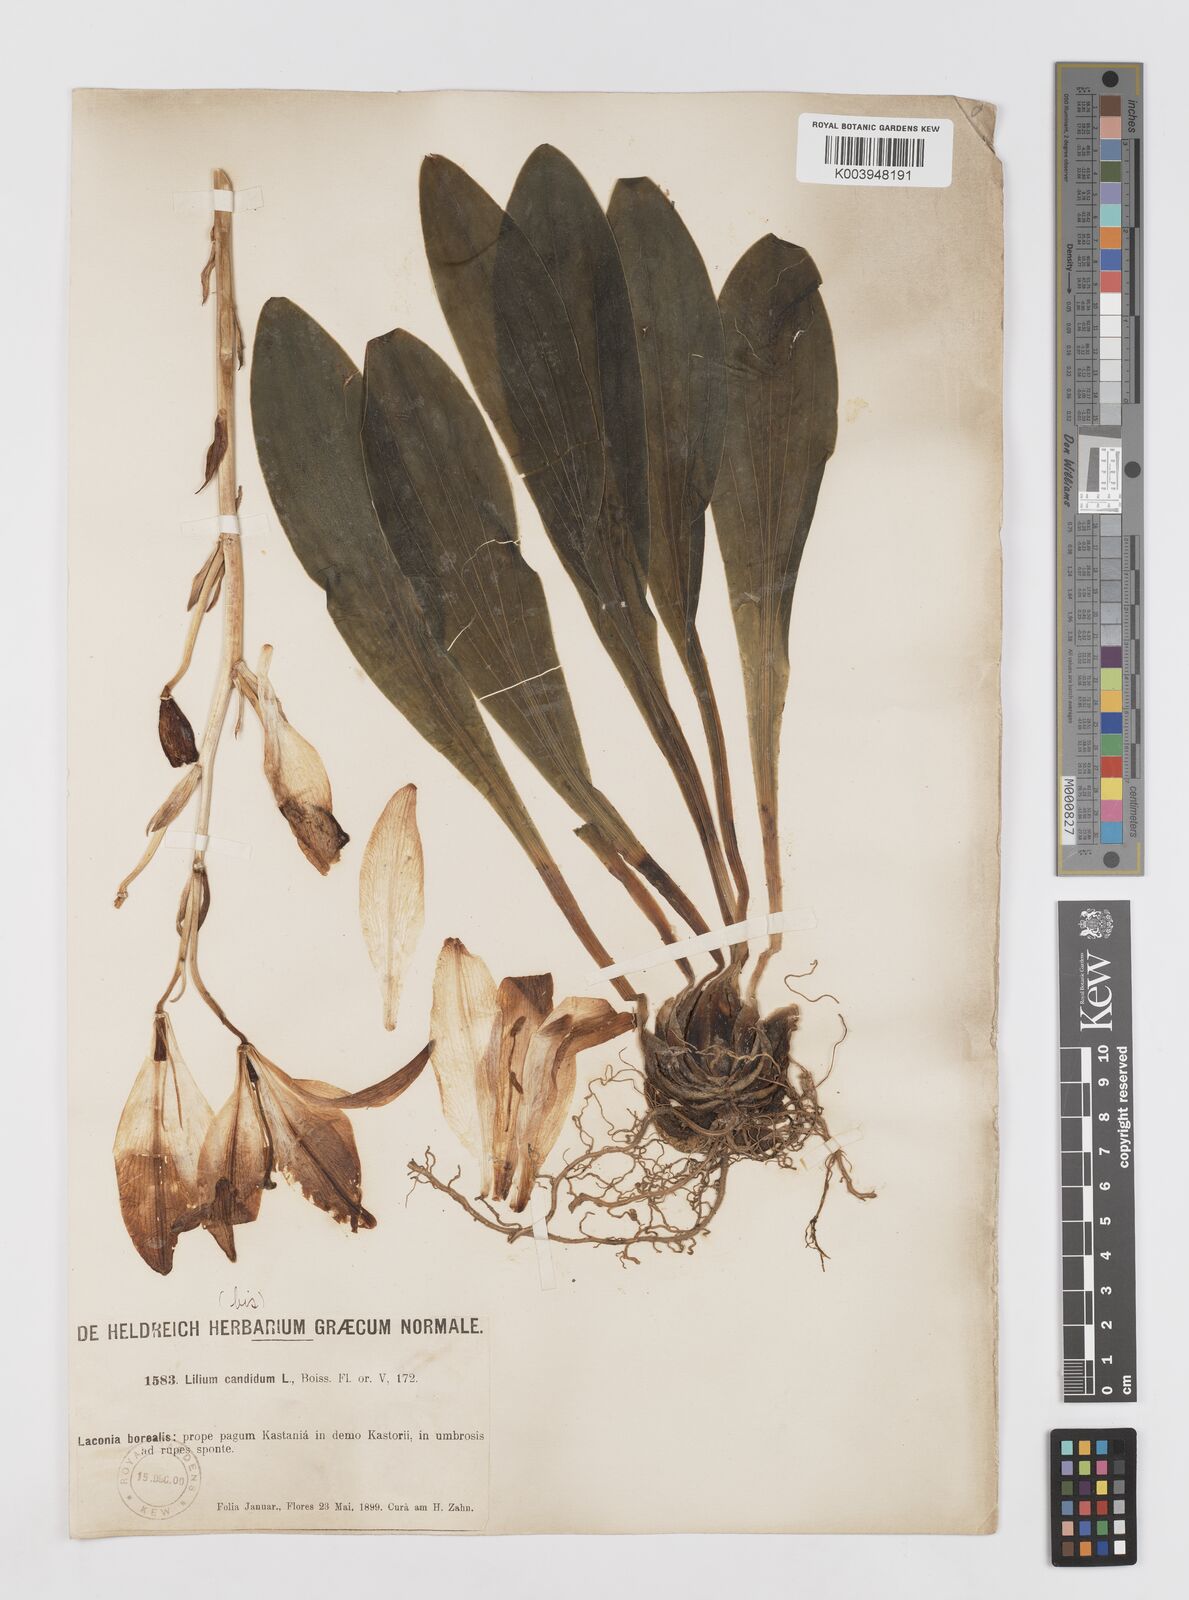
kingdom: Plantae
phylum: Tracheophyta
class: Liliopsida
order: Liliales
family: Liliaceae
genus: Lilium
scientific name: Lilium candidum
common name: Madonna lily
